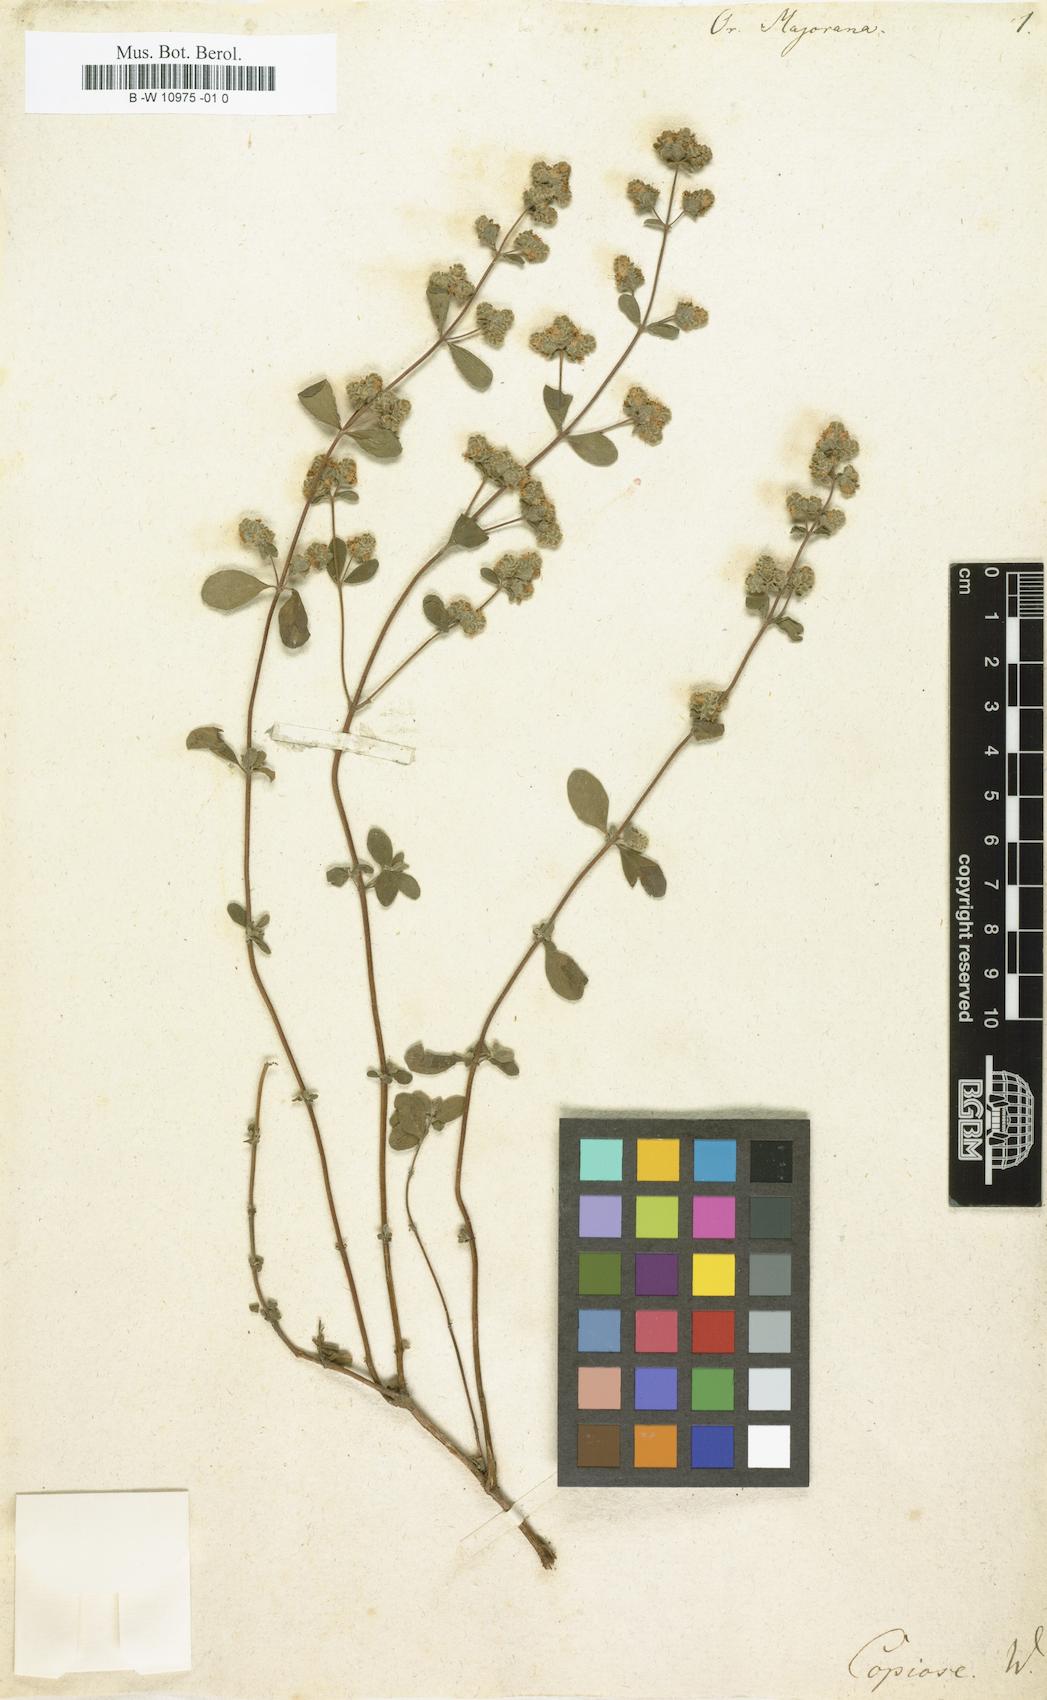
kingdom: Plantae
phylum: Tracheophyta
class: Magnoliopsida
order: Lamiales
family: Lamiaceae
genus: Origanum
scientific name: Origanum majorana
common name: Sweet marjoram
